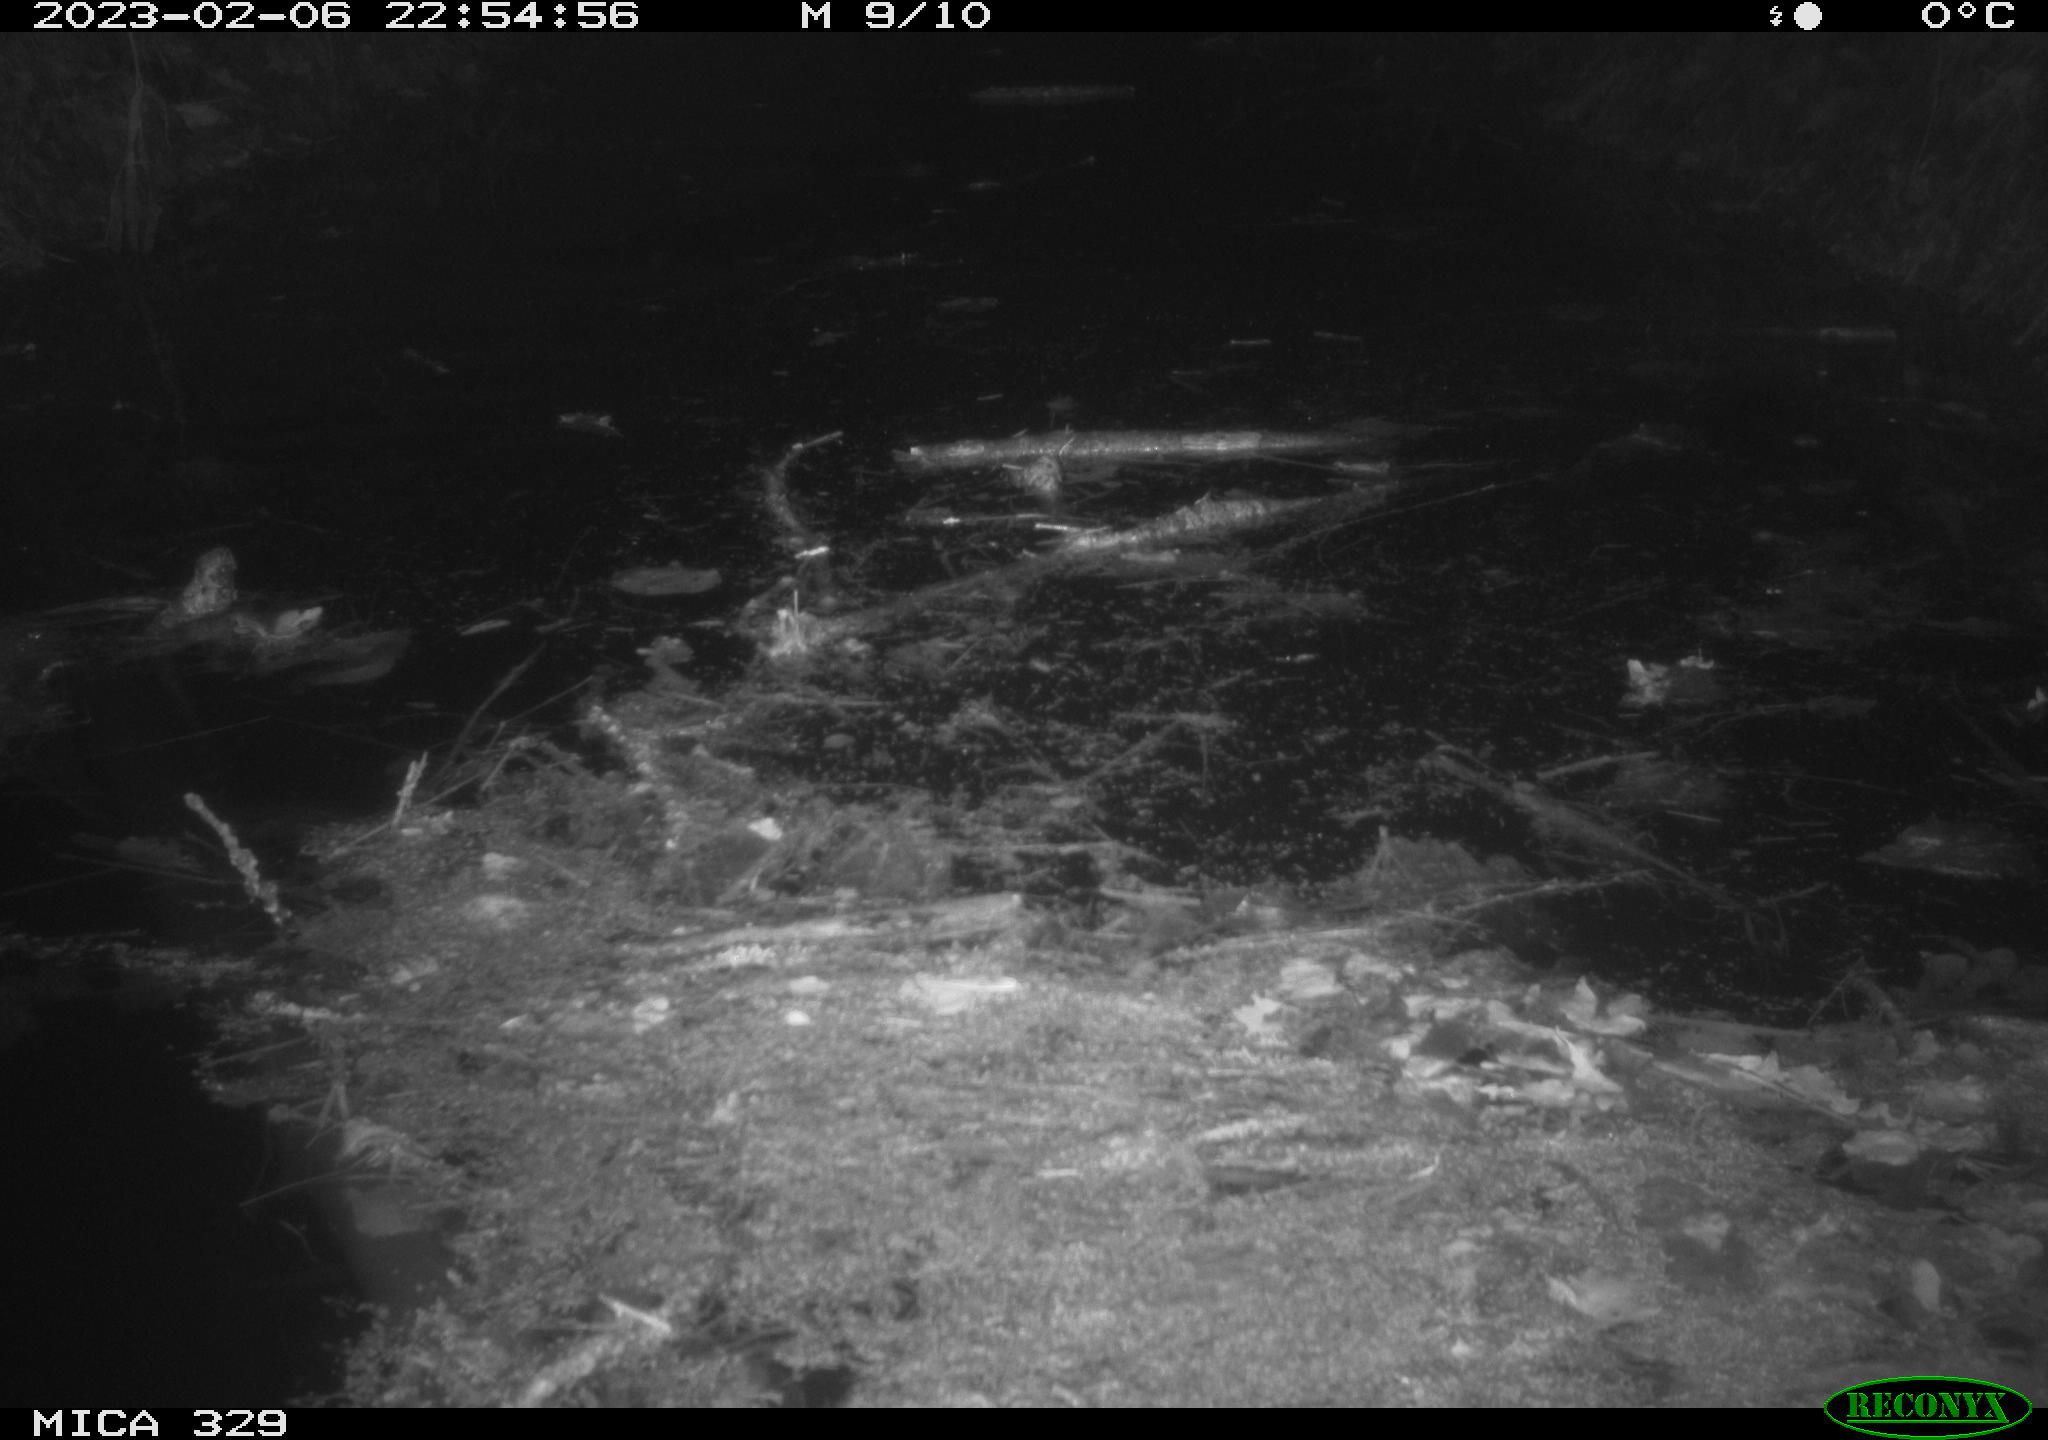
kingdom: Animalia
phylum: Chordata
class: Mammalia
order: Rodentia
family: Cricetidae
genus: Ondatra
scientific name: Ondatra zibethicus
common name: Muskrat
